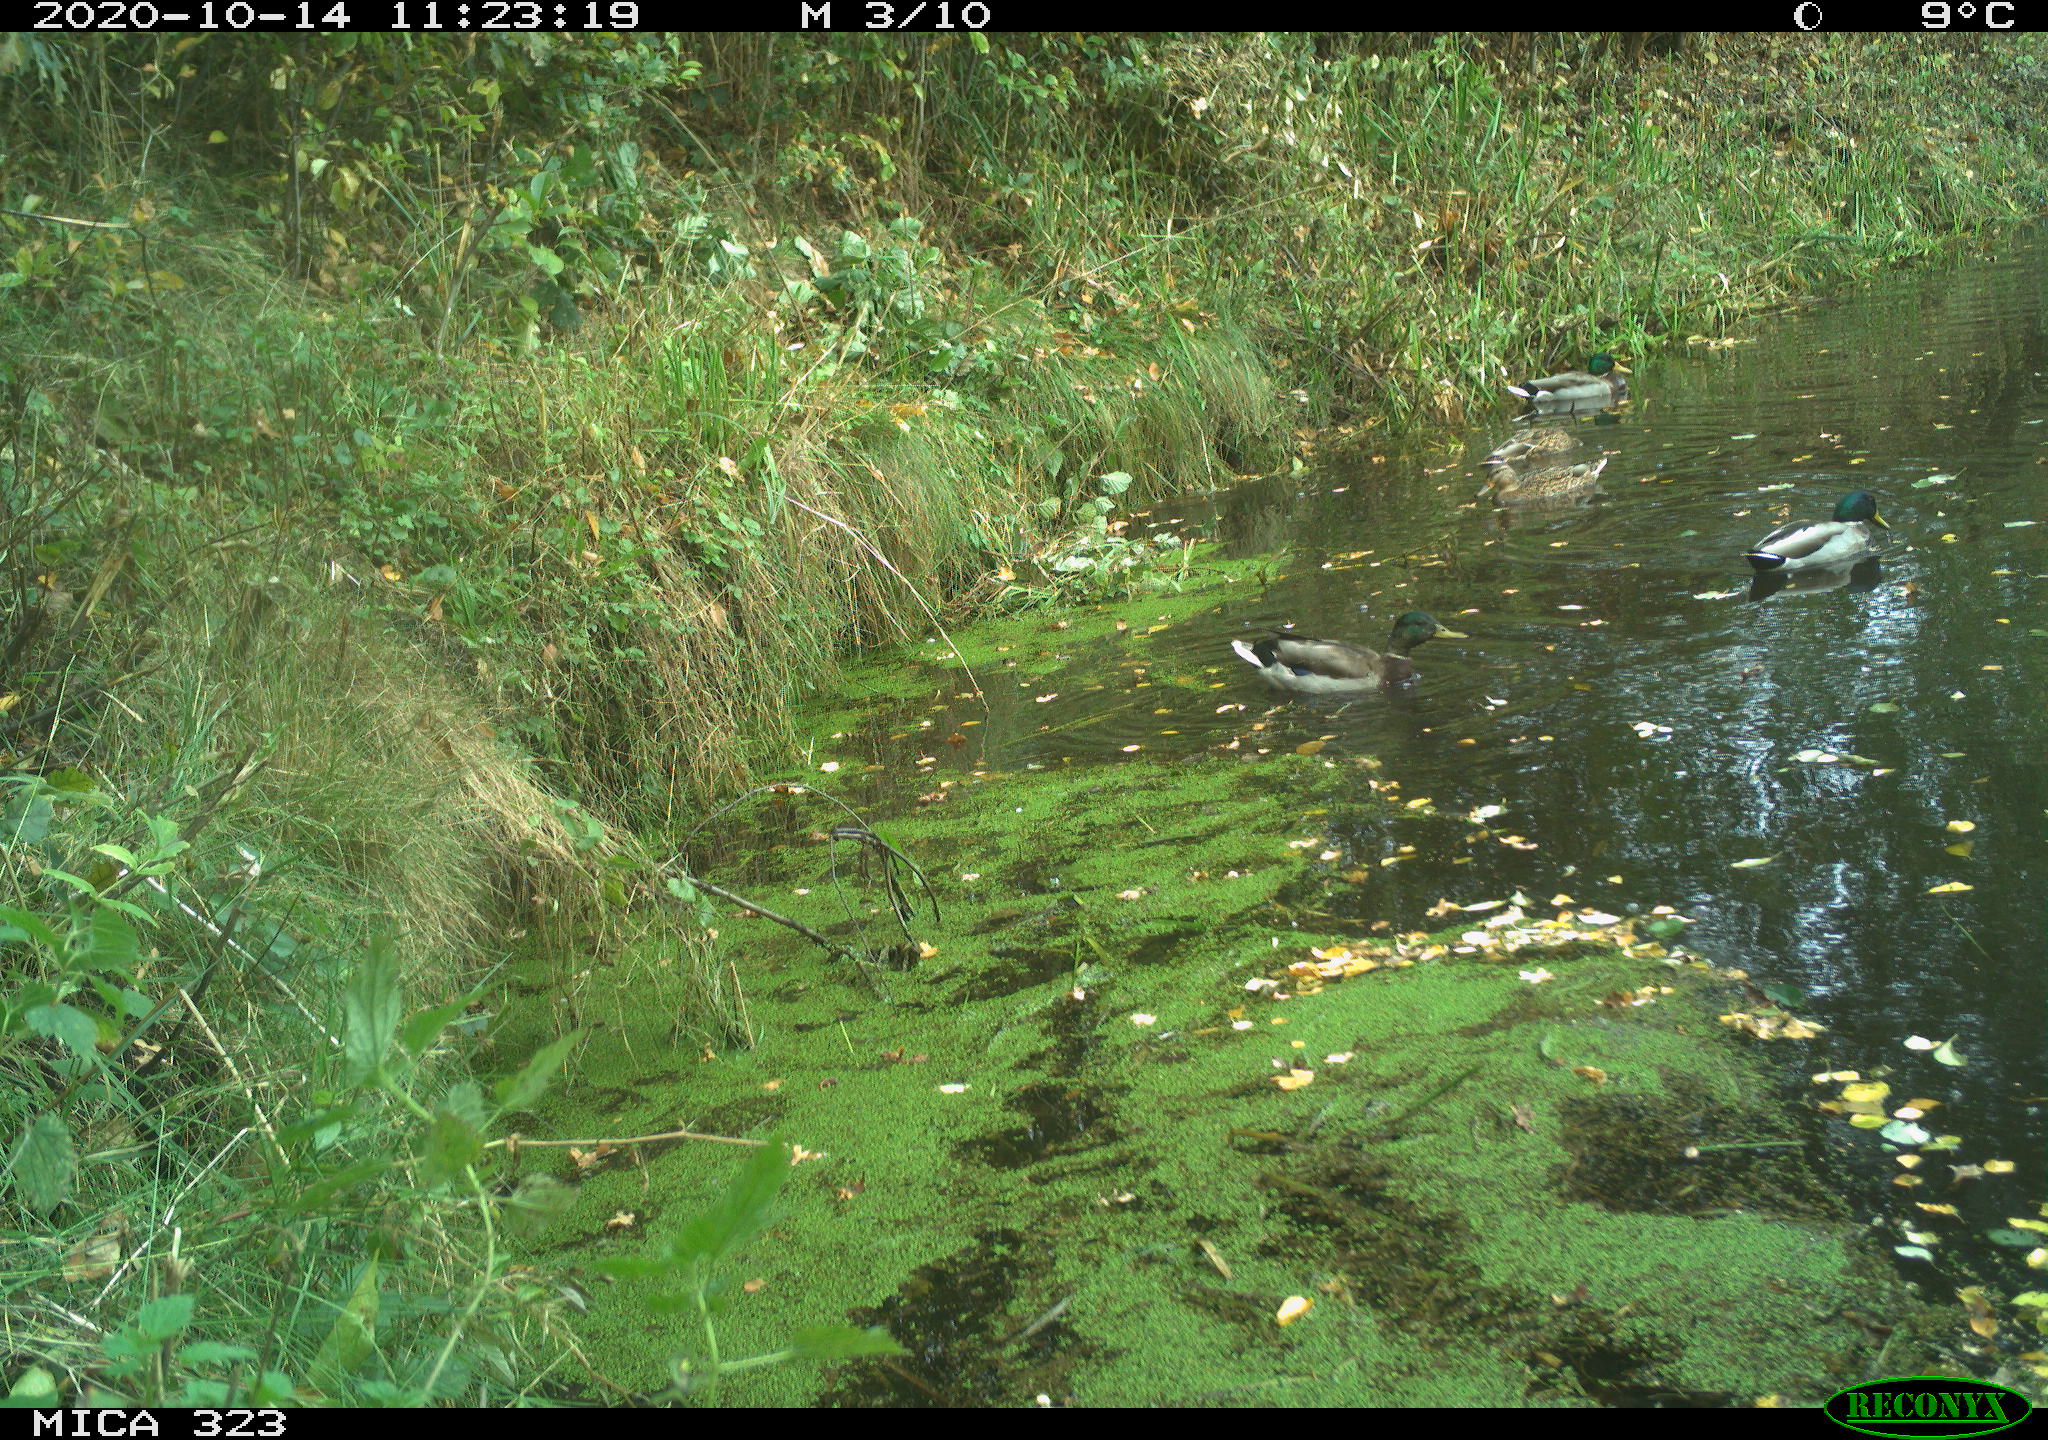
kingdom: Animalia
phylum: Chordata
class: Aves
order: Anseriformes
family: Anatidae
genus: Anas
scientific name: Anas platyrhynchos
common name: Mallard
